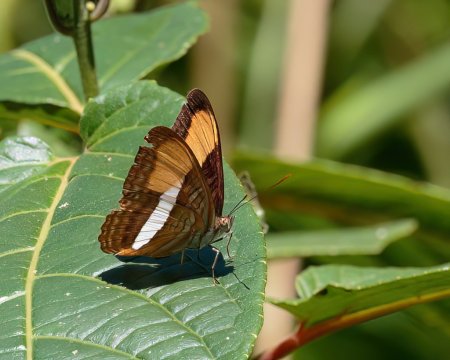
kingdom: Animalia
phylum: Arthropoda
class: Insecta
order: Lepidoptera
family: Nymphalidae
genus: Limenitis
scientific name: Limenitis cytherea
